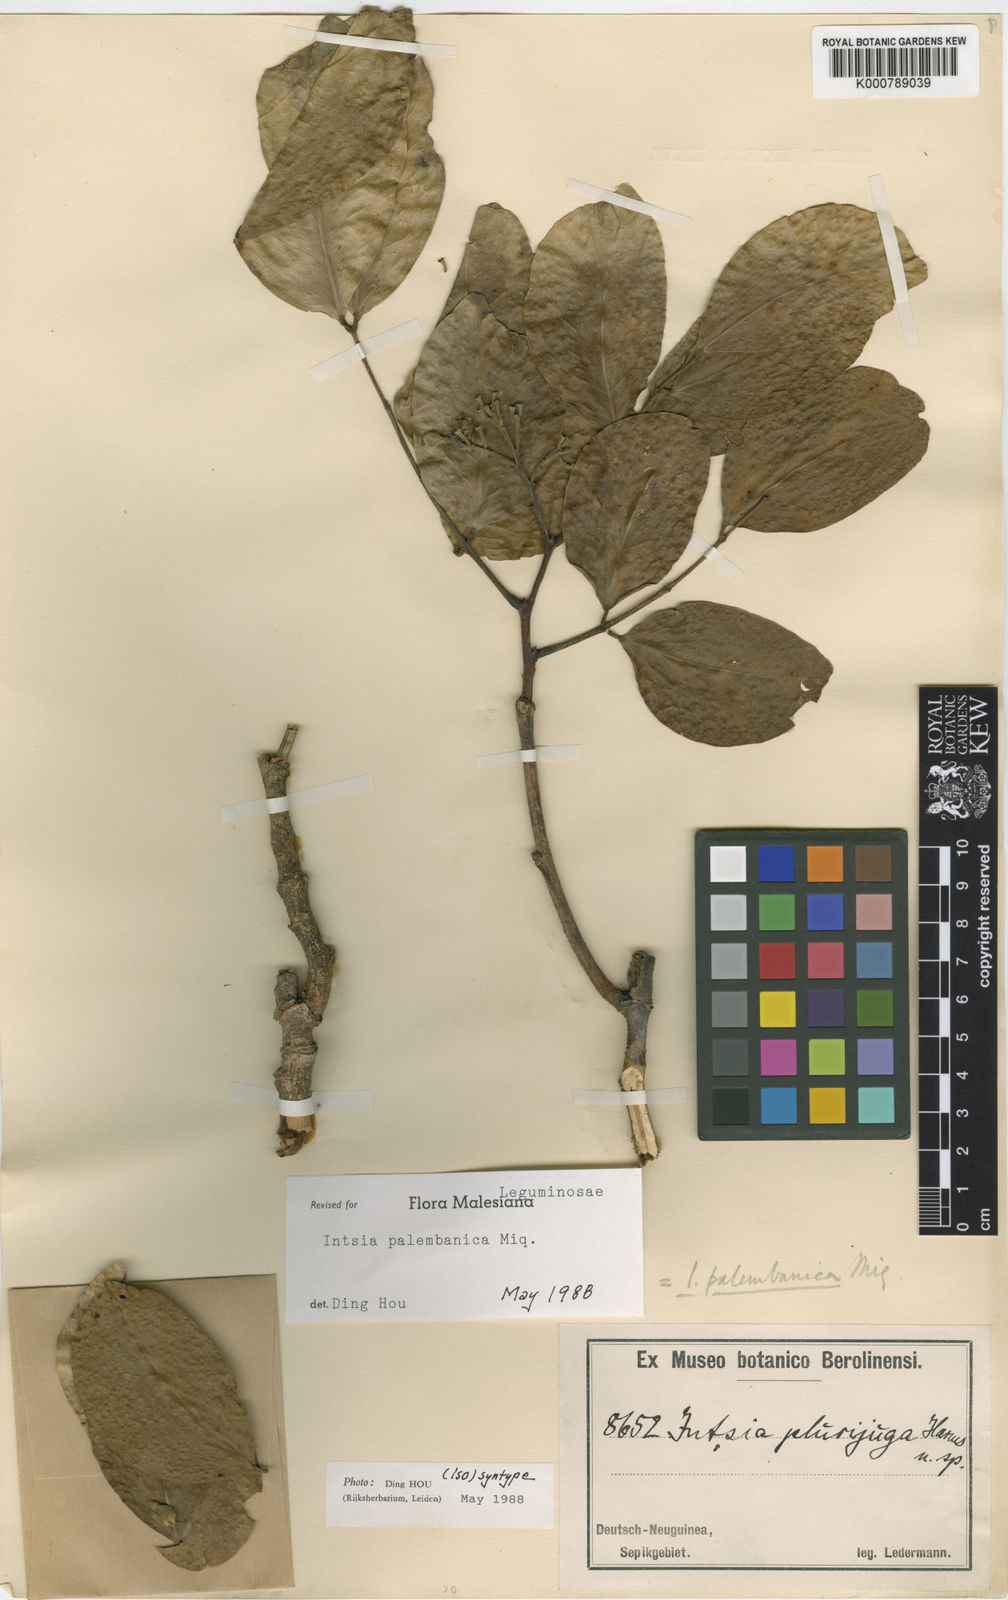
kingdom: Plantae
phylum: Tracheophyta
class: Magnoliopsida
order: Fabales
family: Fabaceae
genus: Intsia
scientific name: Intsia palembanica
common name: Merbau
